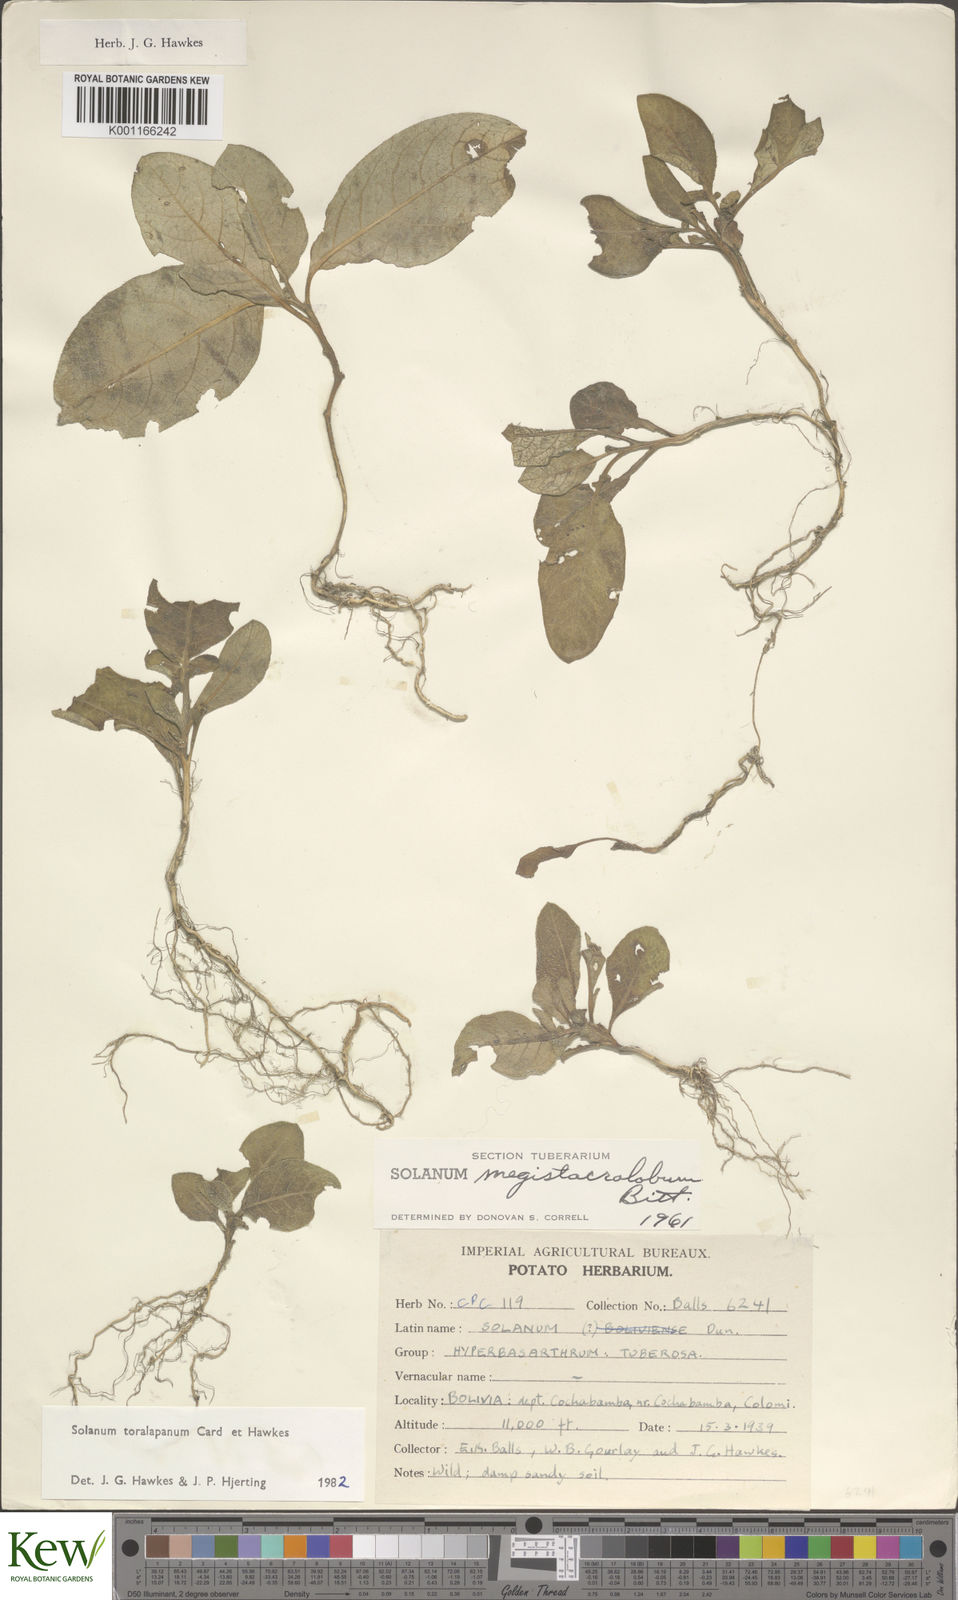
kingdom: Plantae
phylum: Tracheophyta
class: Magnoliopsida
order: Solanales
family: Solanaceae
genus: Solanum
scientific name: Solanum
